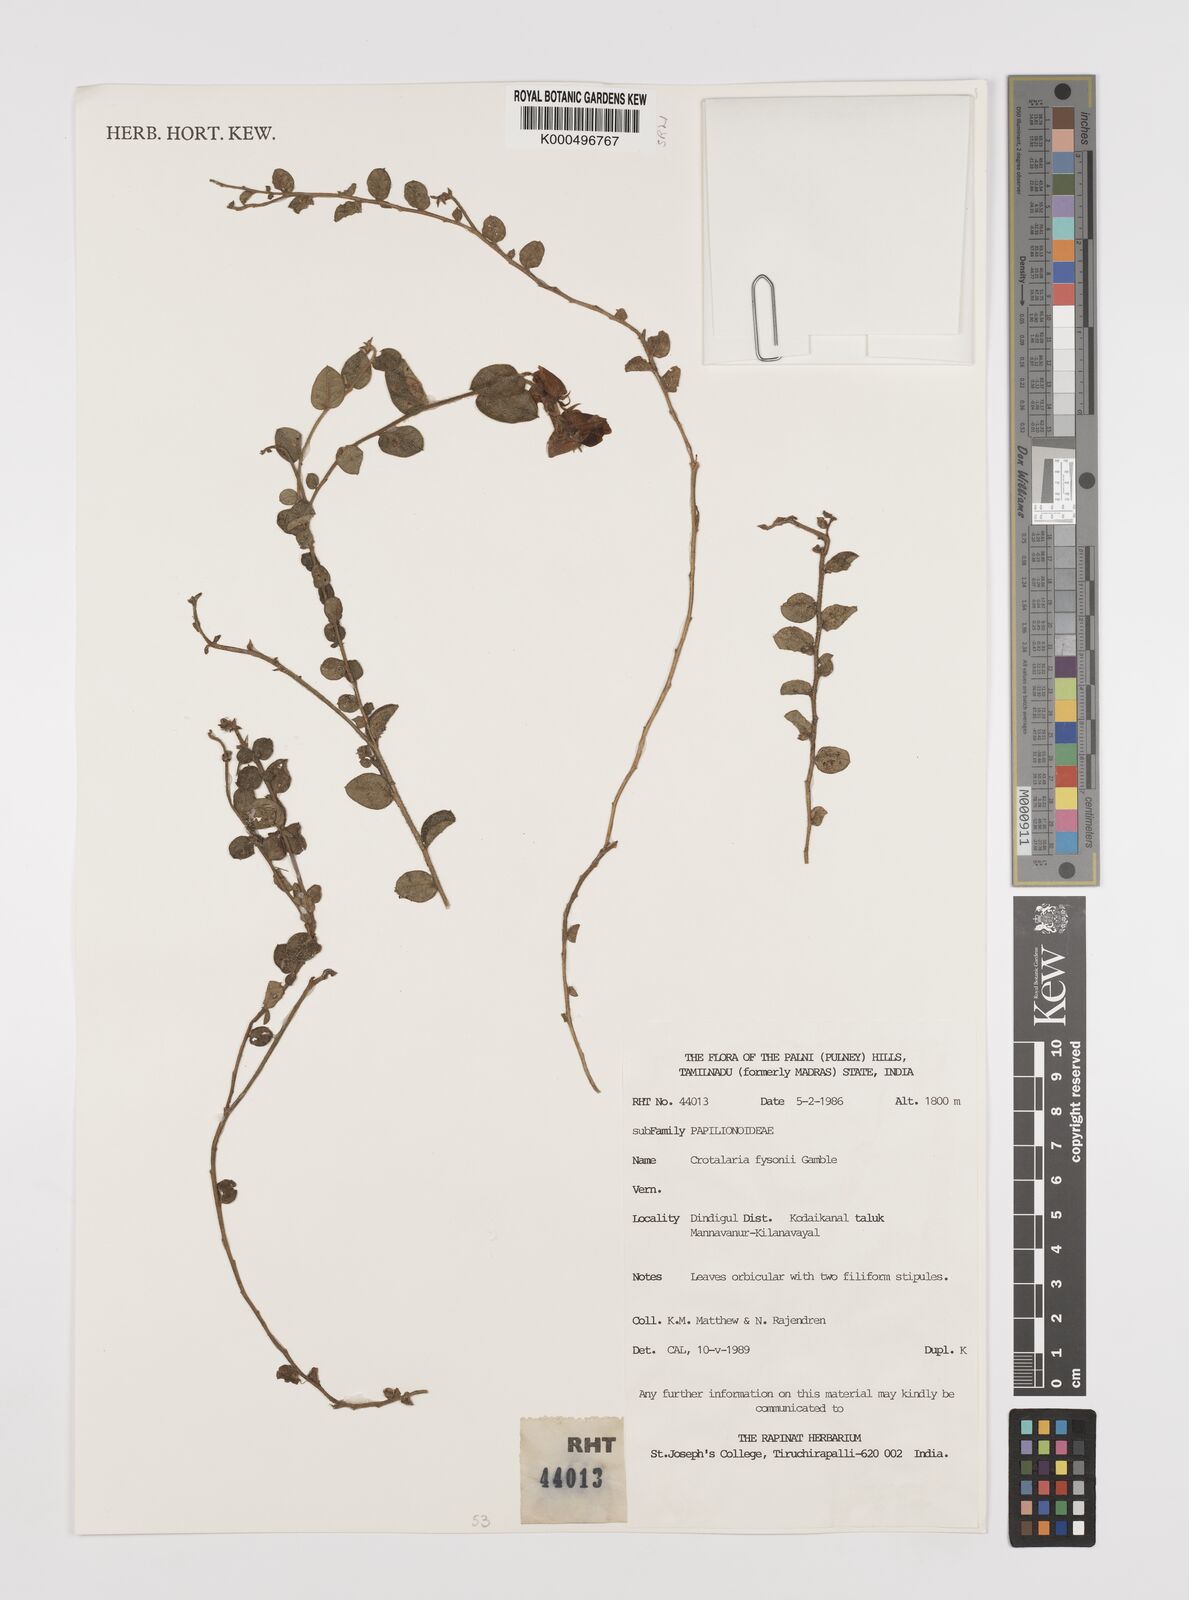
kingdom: Plantae
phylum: Tracheophyta
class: Magnoliopsida
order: Fabales
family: Fabaceae
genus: Crotalaria
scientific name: Crotalaria fysonii
